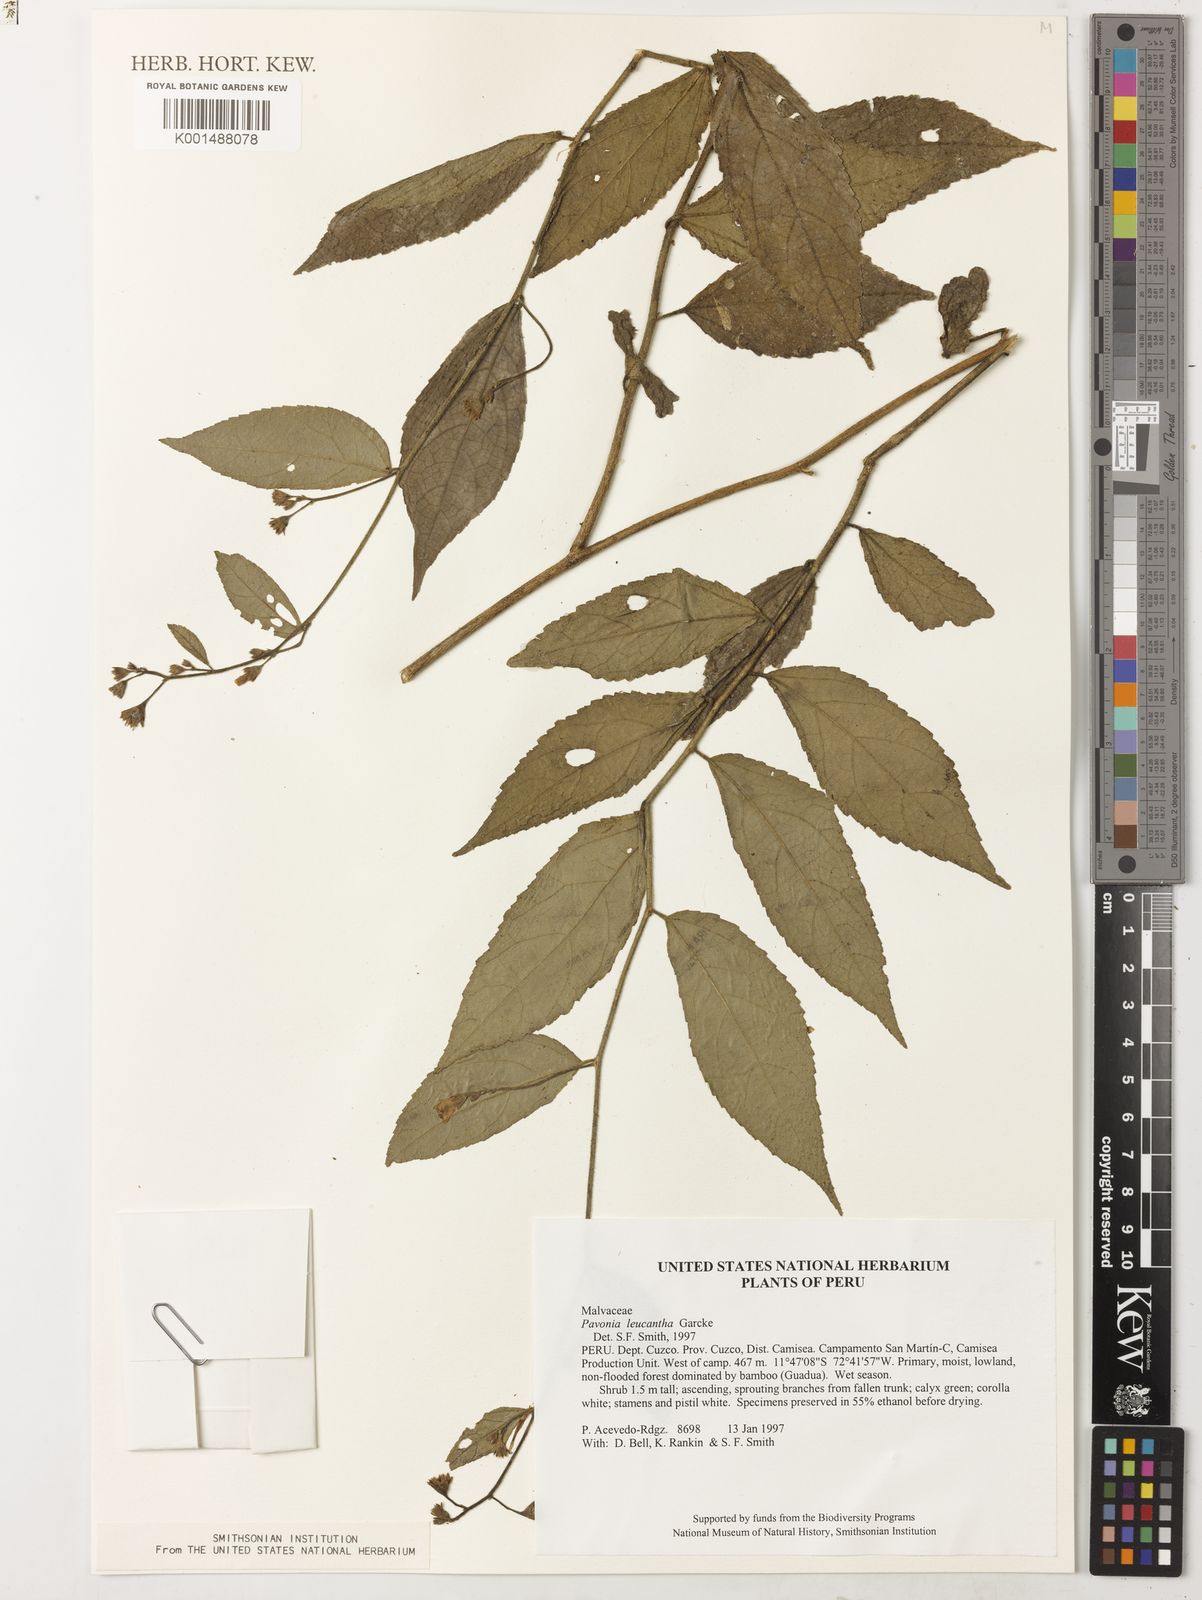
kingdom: Plantae
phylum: Tracheophyta
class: Magnoliopsida
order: Malvales
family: Malvaceae
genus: Pavonia
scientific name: Pavonia leucantha
